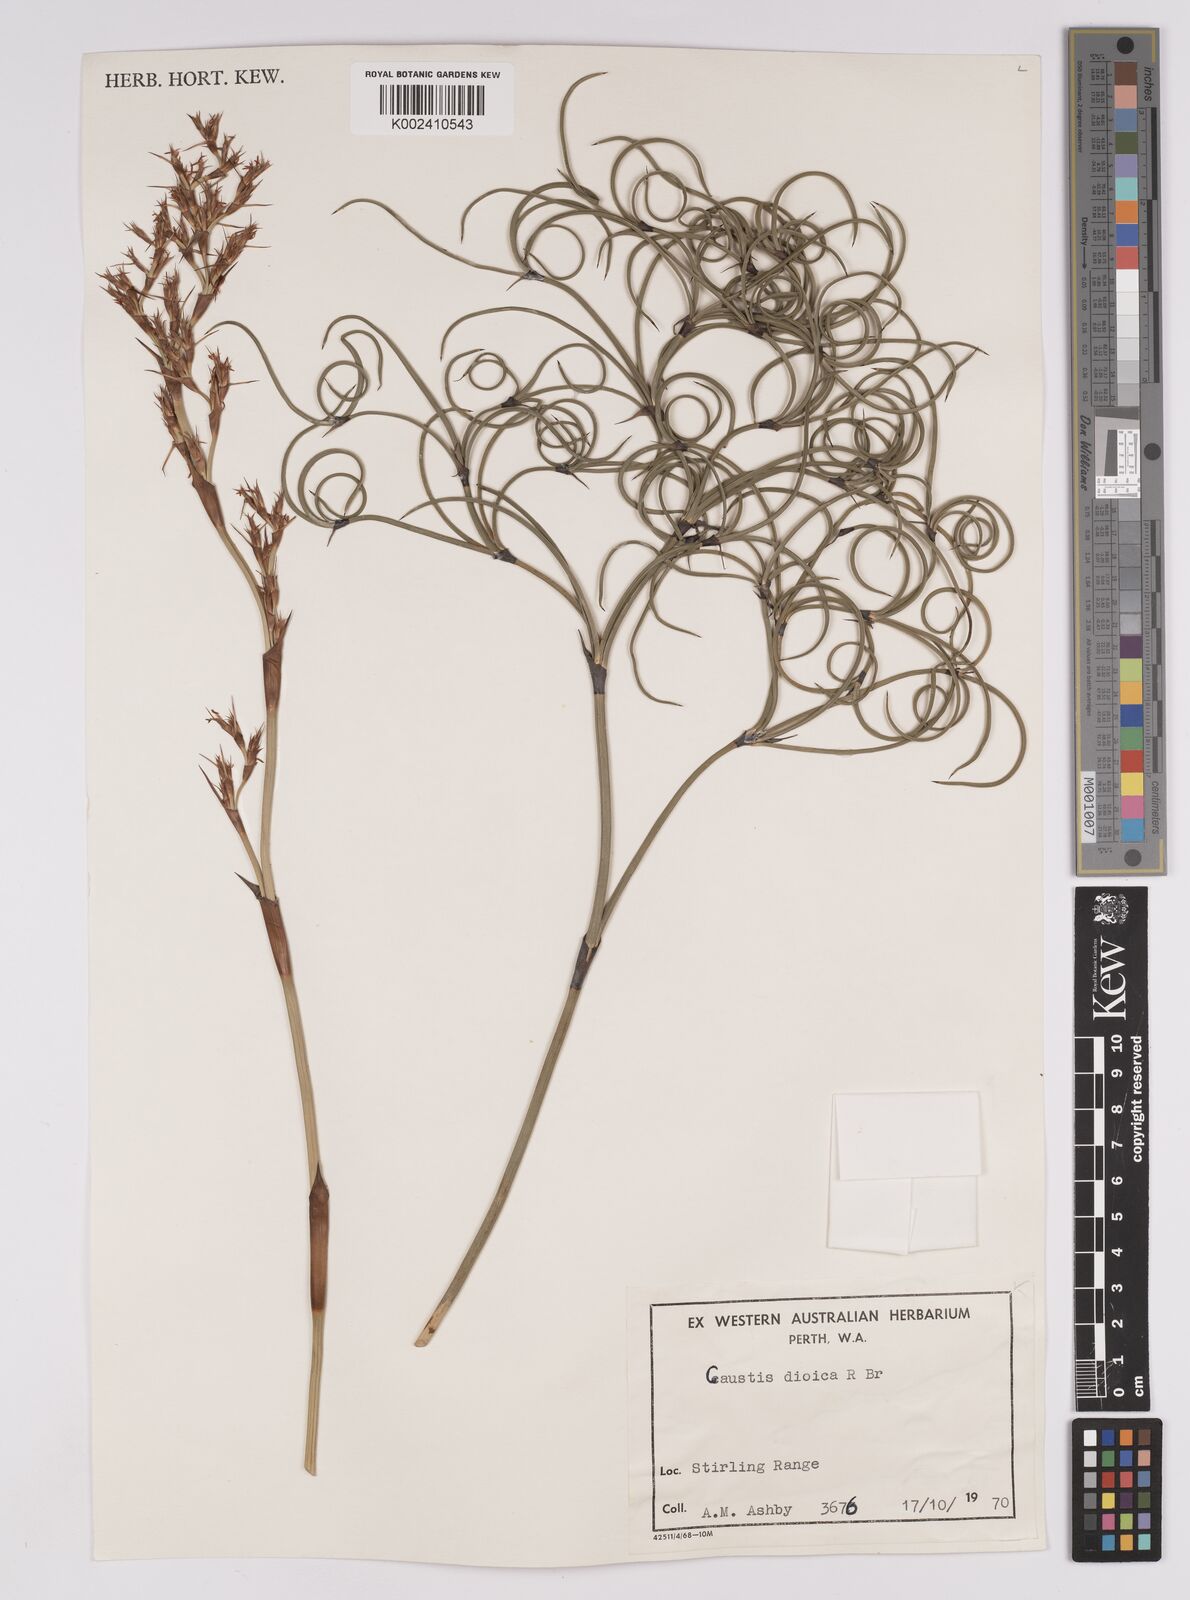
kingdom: Plantae
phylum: Tracheophyta
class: Liliopsida
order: Poales
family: Cyperaceae
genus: Caustis
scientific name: Caustis dioica
